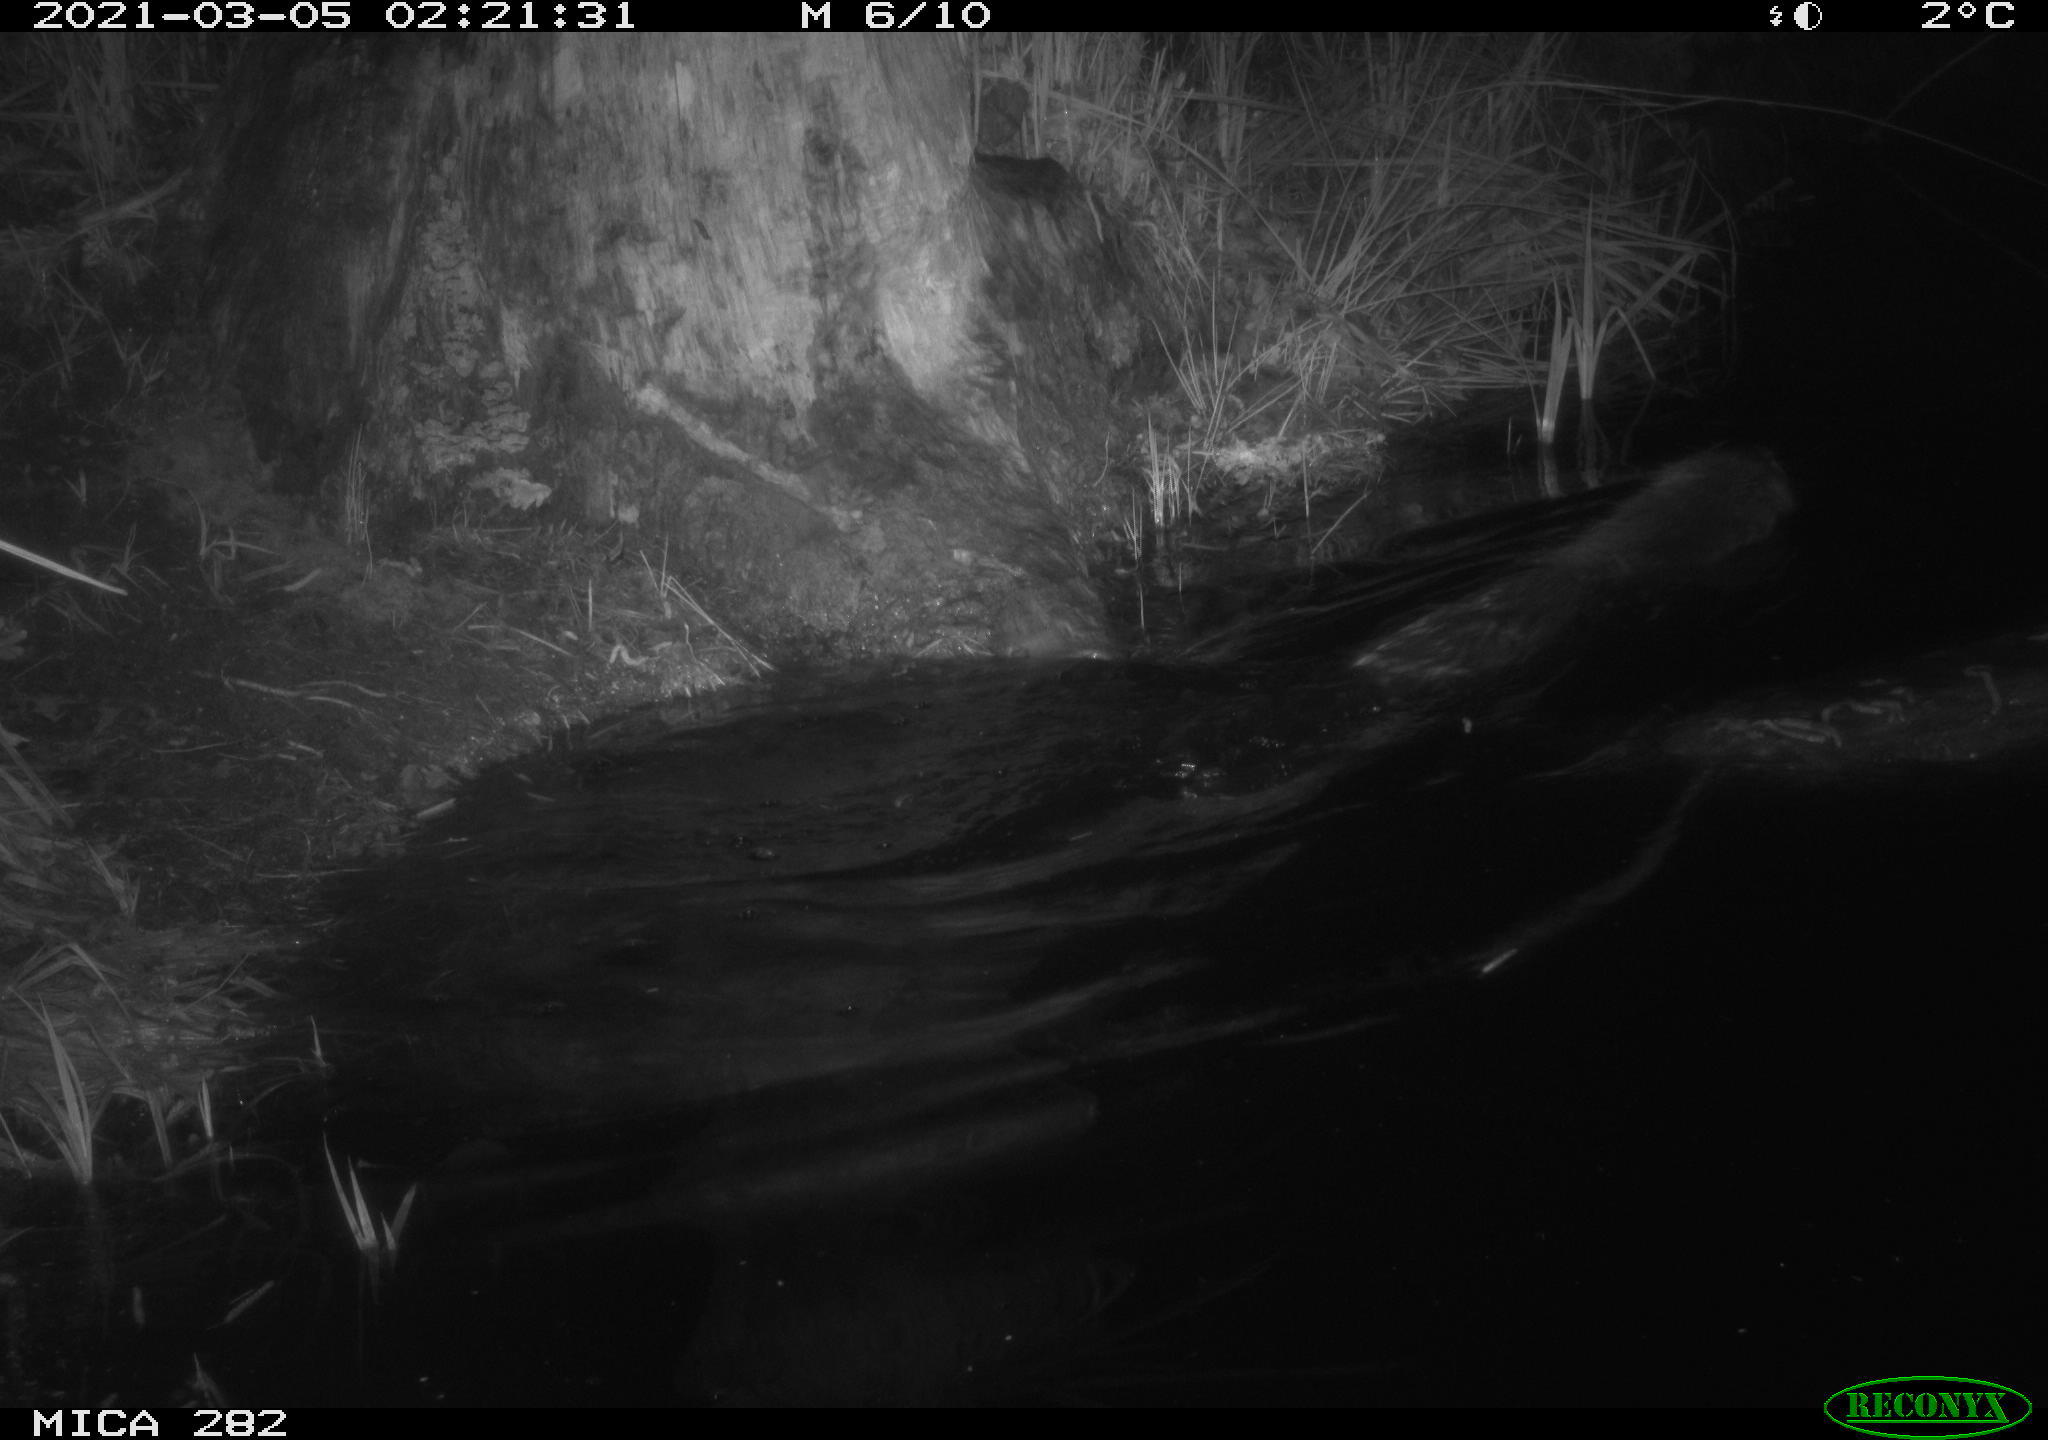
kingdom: Animalia
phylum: Chordata
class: Mammalia
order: Rodentia
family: Castoridae
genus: Castor
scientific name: Castor fiber
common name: Eurasian beaver
